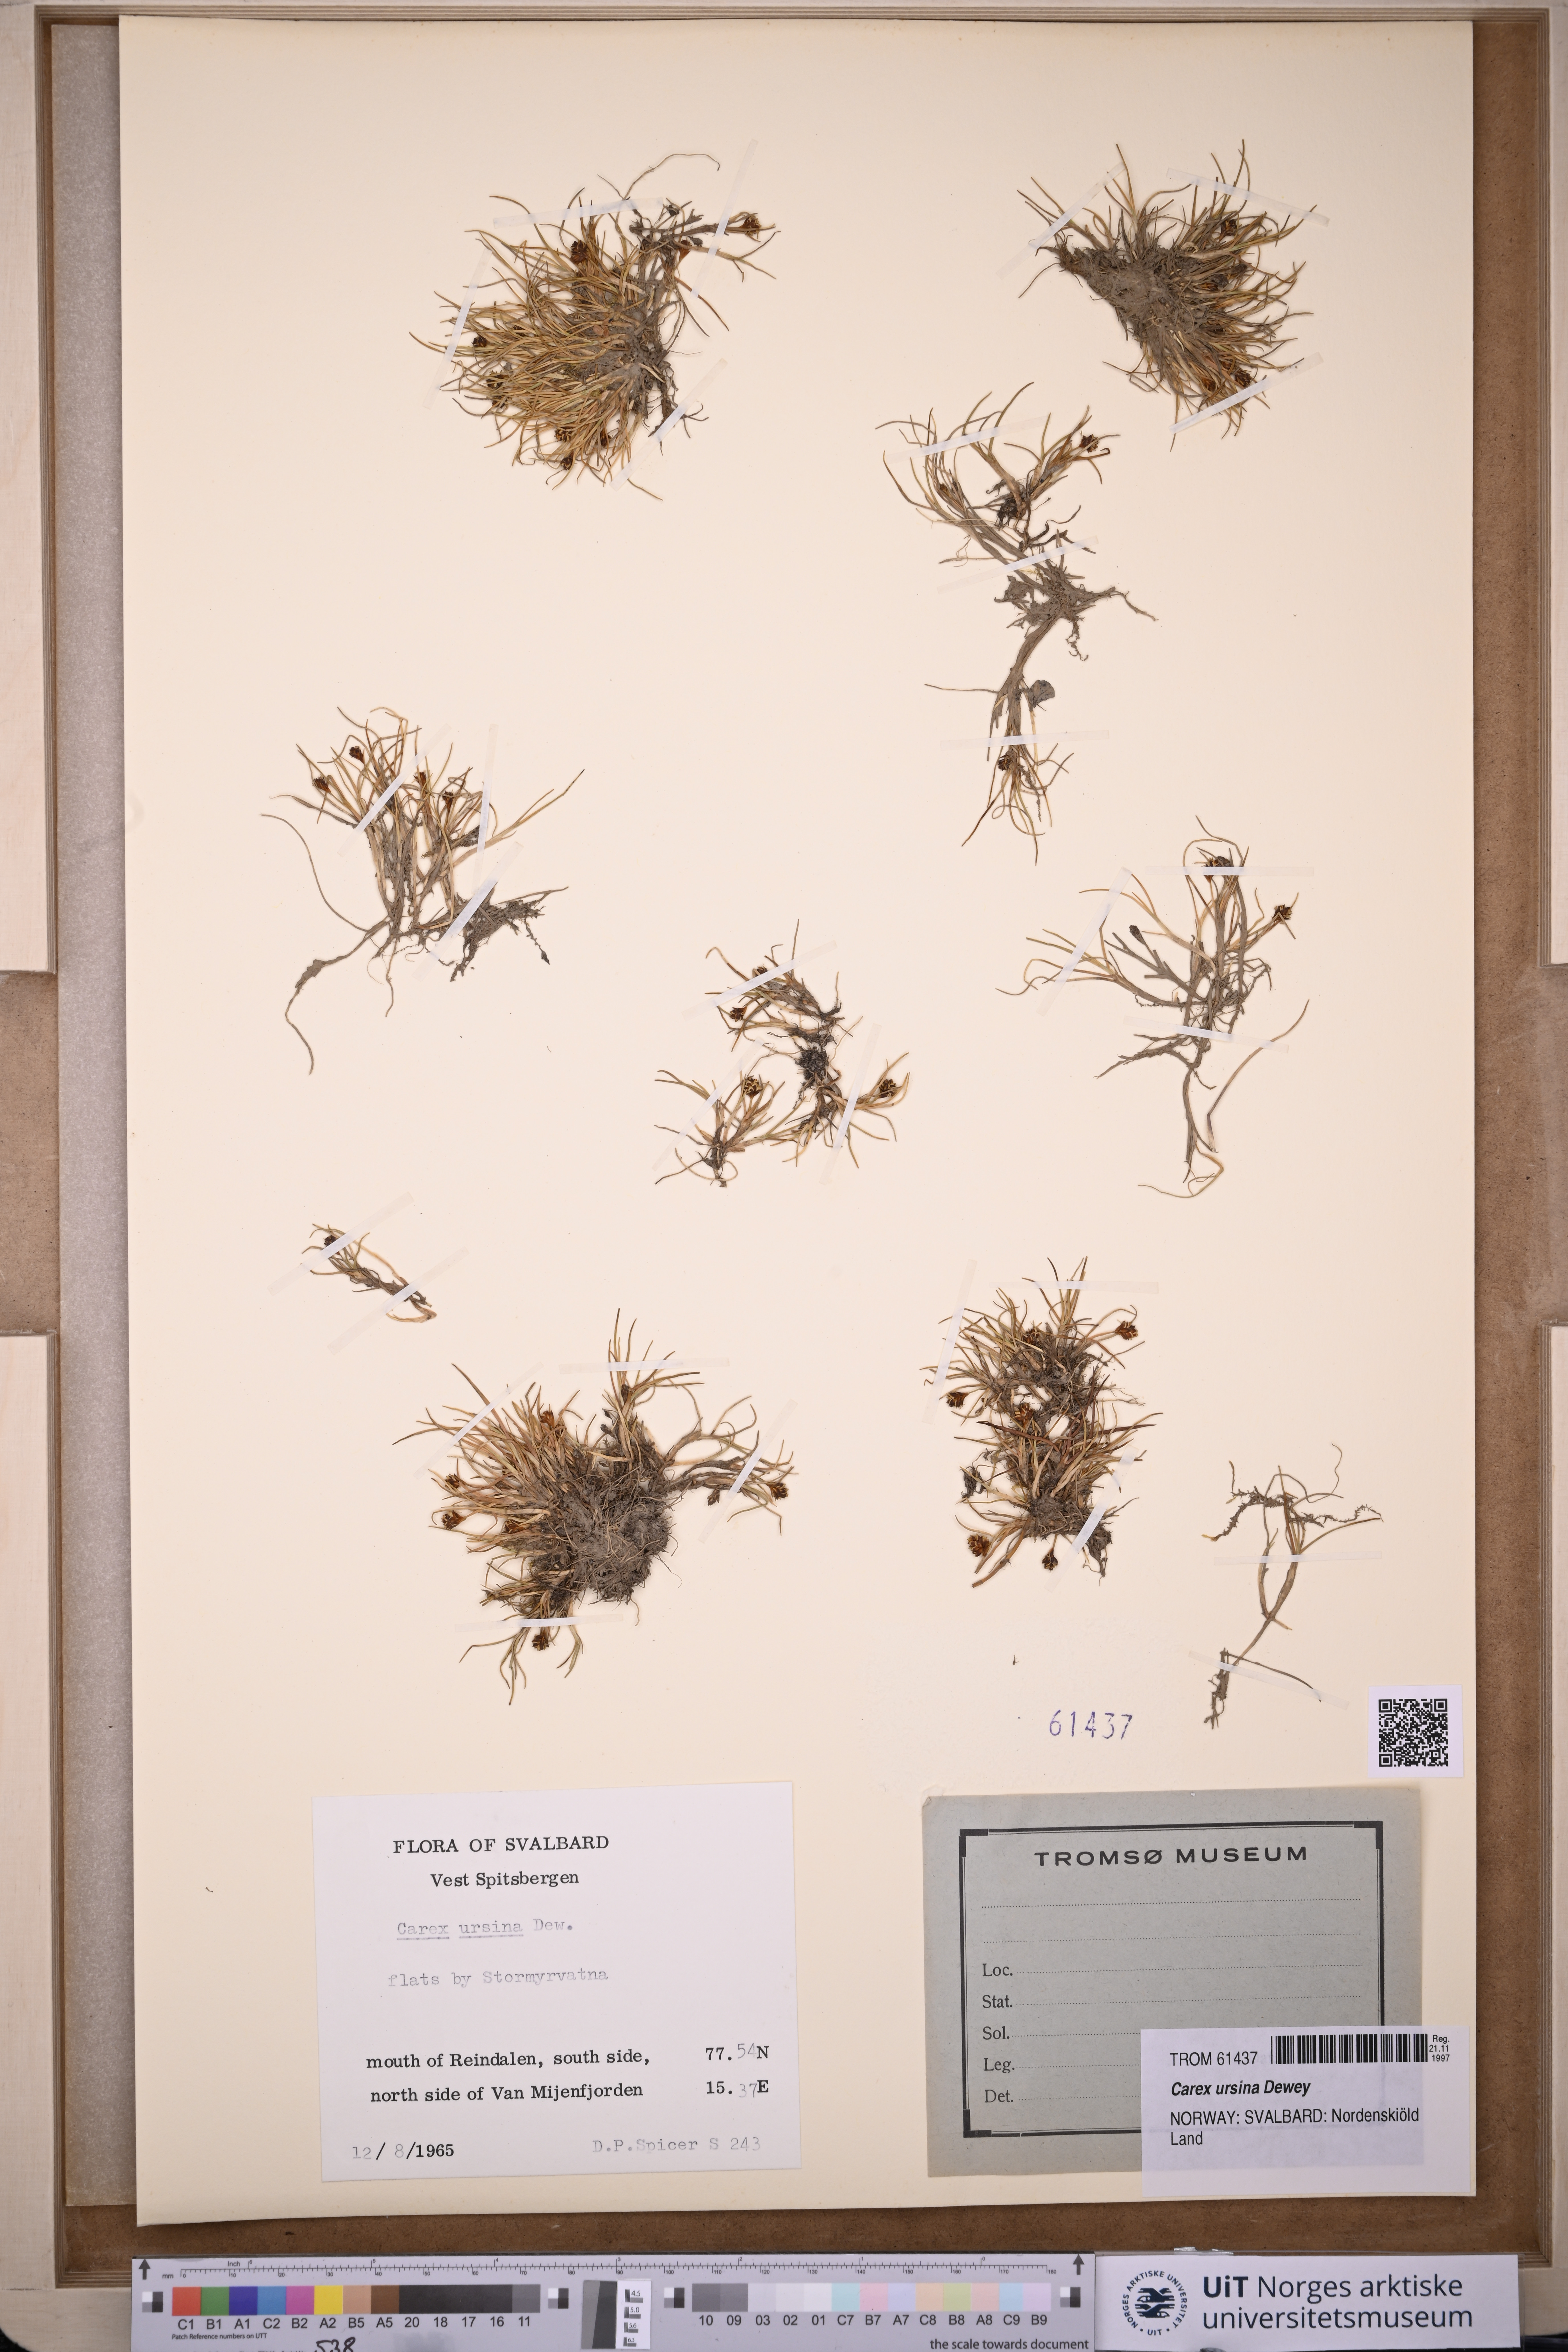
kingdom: Plantae
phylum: Tracheophyta
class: Liliopsida
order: Poales
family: Cyperaceae
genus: Carex
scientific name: Carex ursina
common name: Bear sedge
